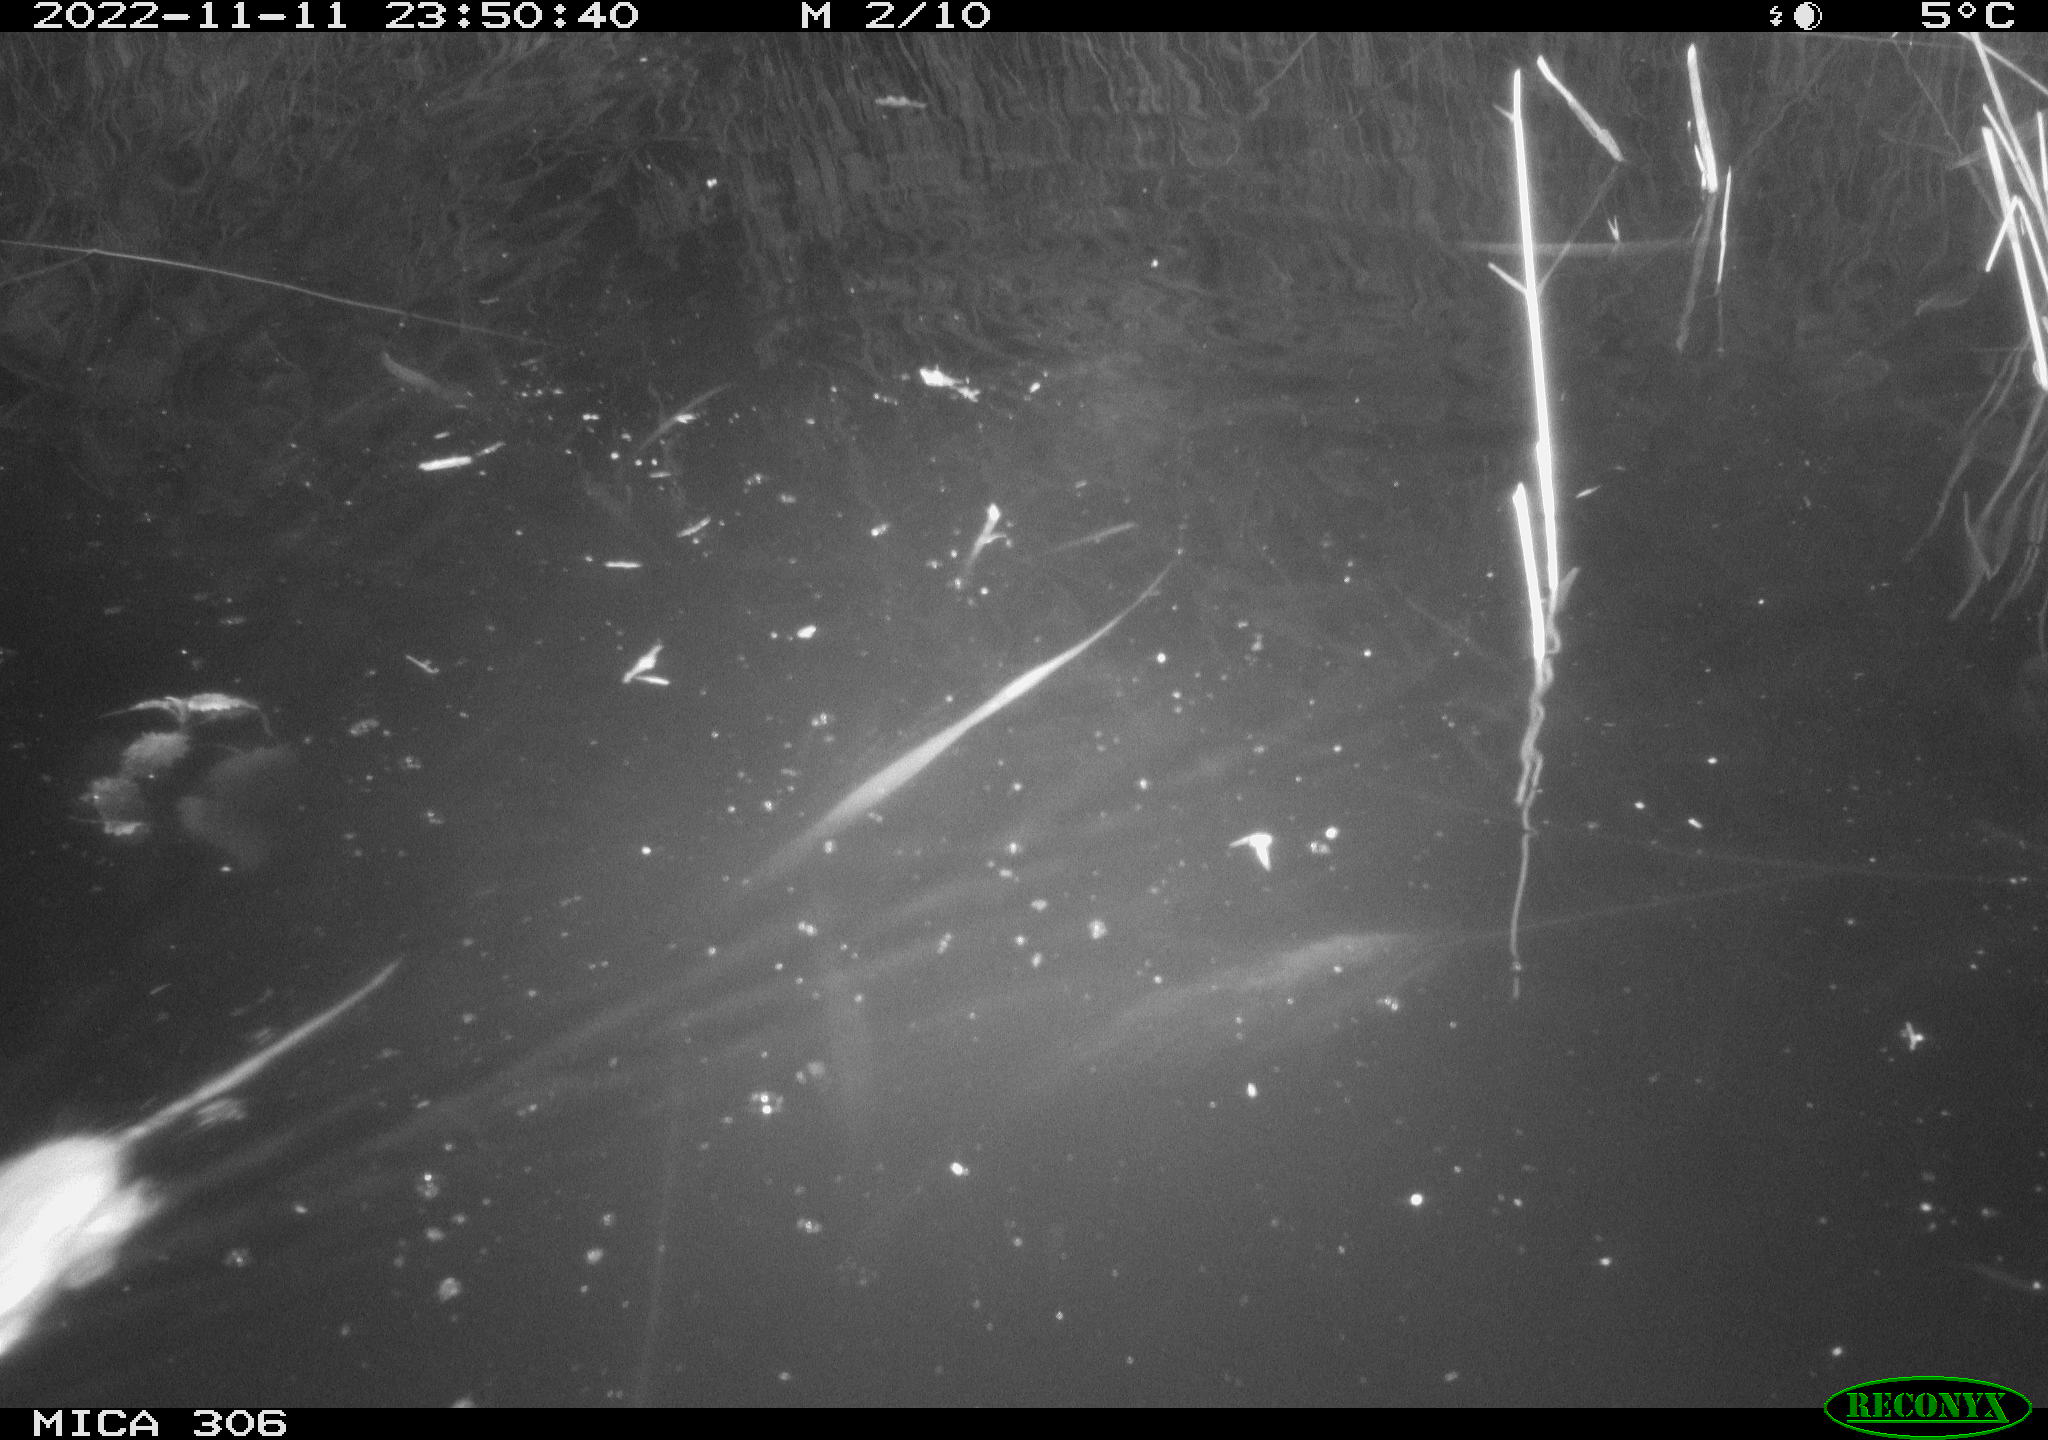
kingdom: Animalia
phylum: Chordata
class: Mammalia
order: Rodentia
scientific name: Rodentia
